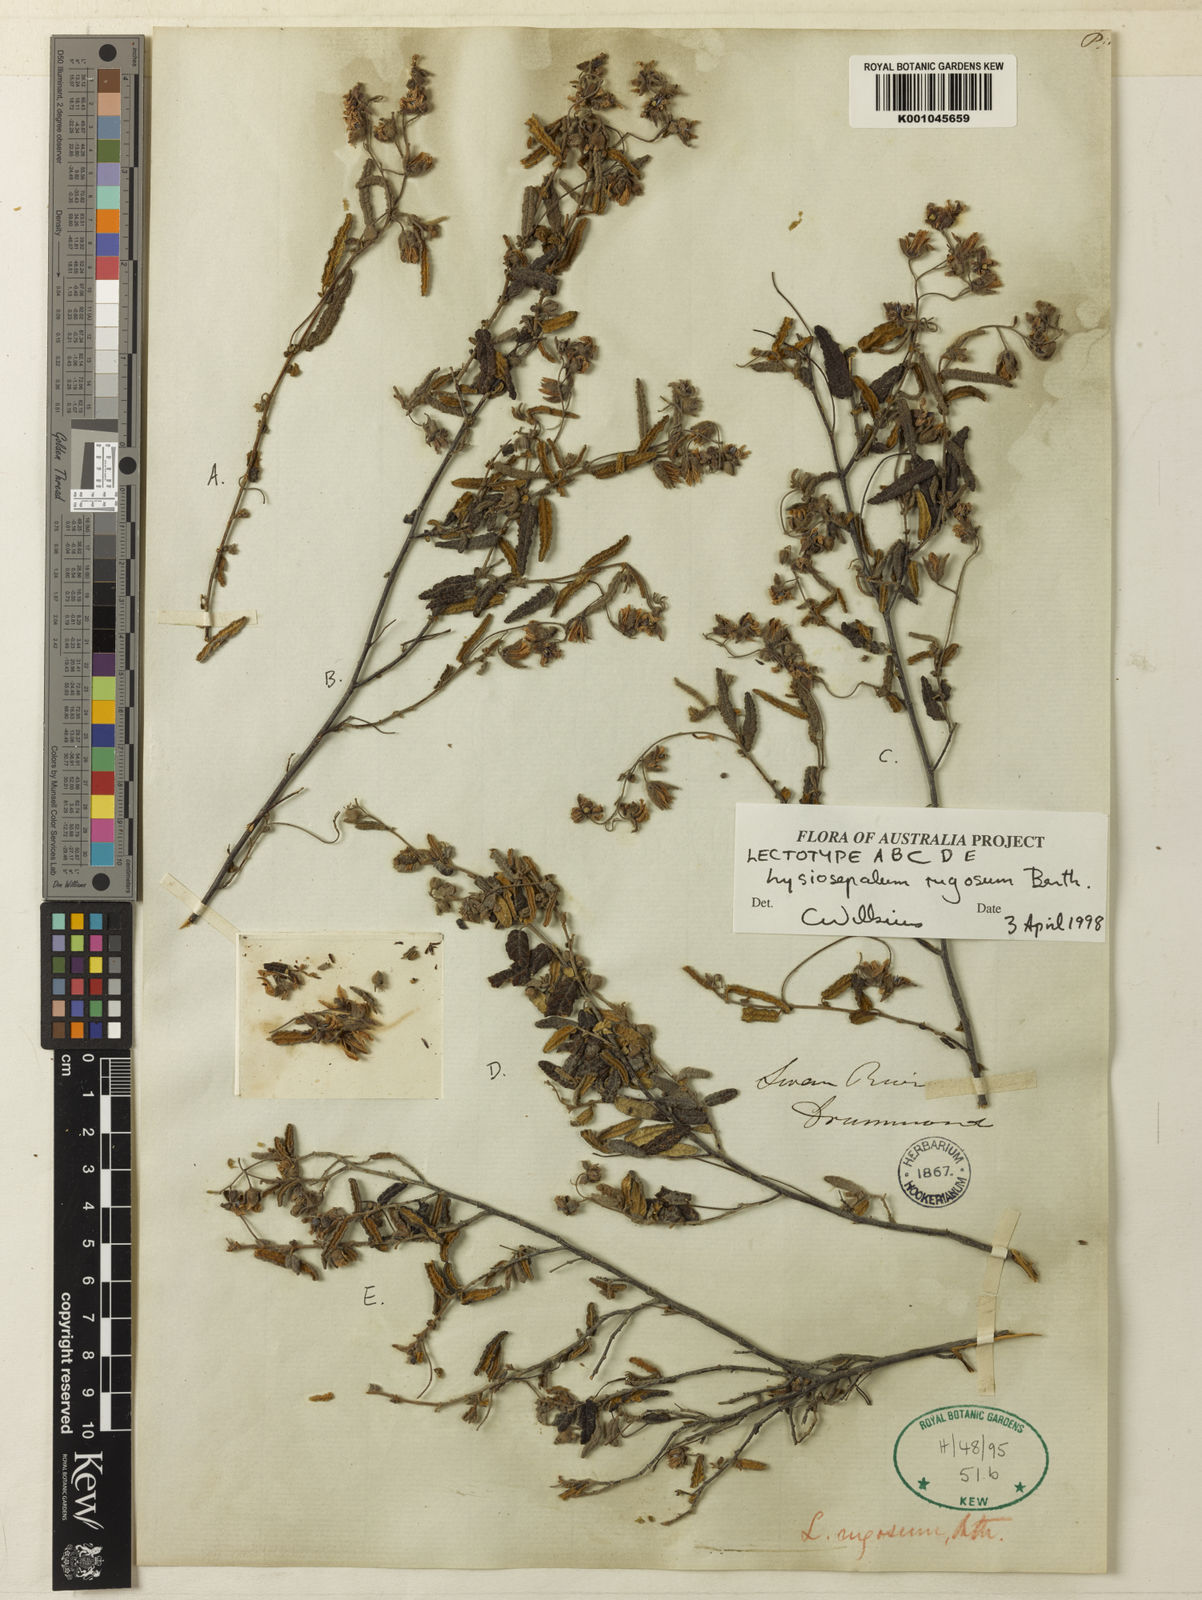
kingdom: Plantae
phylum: Tracheophyta
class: Magnoliopsida
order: Malvales
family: Malvaceae
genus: Lysiosepalum
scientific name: Lysiosepalum rugosum
